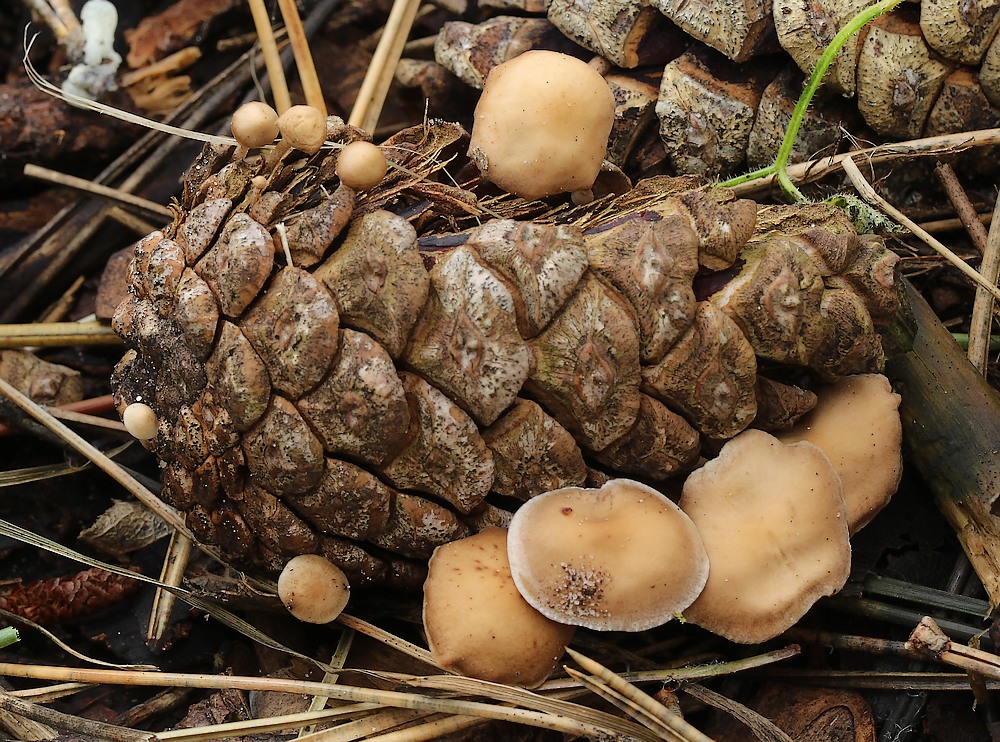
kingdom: Fungi
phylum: Basidiomycota
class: Agaricomycetes
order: Agaricales
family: Marasmiaceae
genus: Baeospora
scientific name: Baeospora myosura
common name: koglebruskhat
